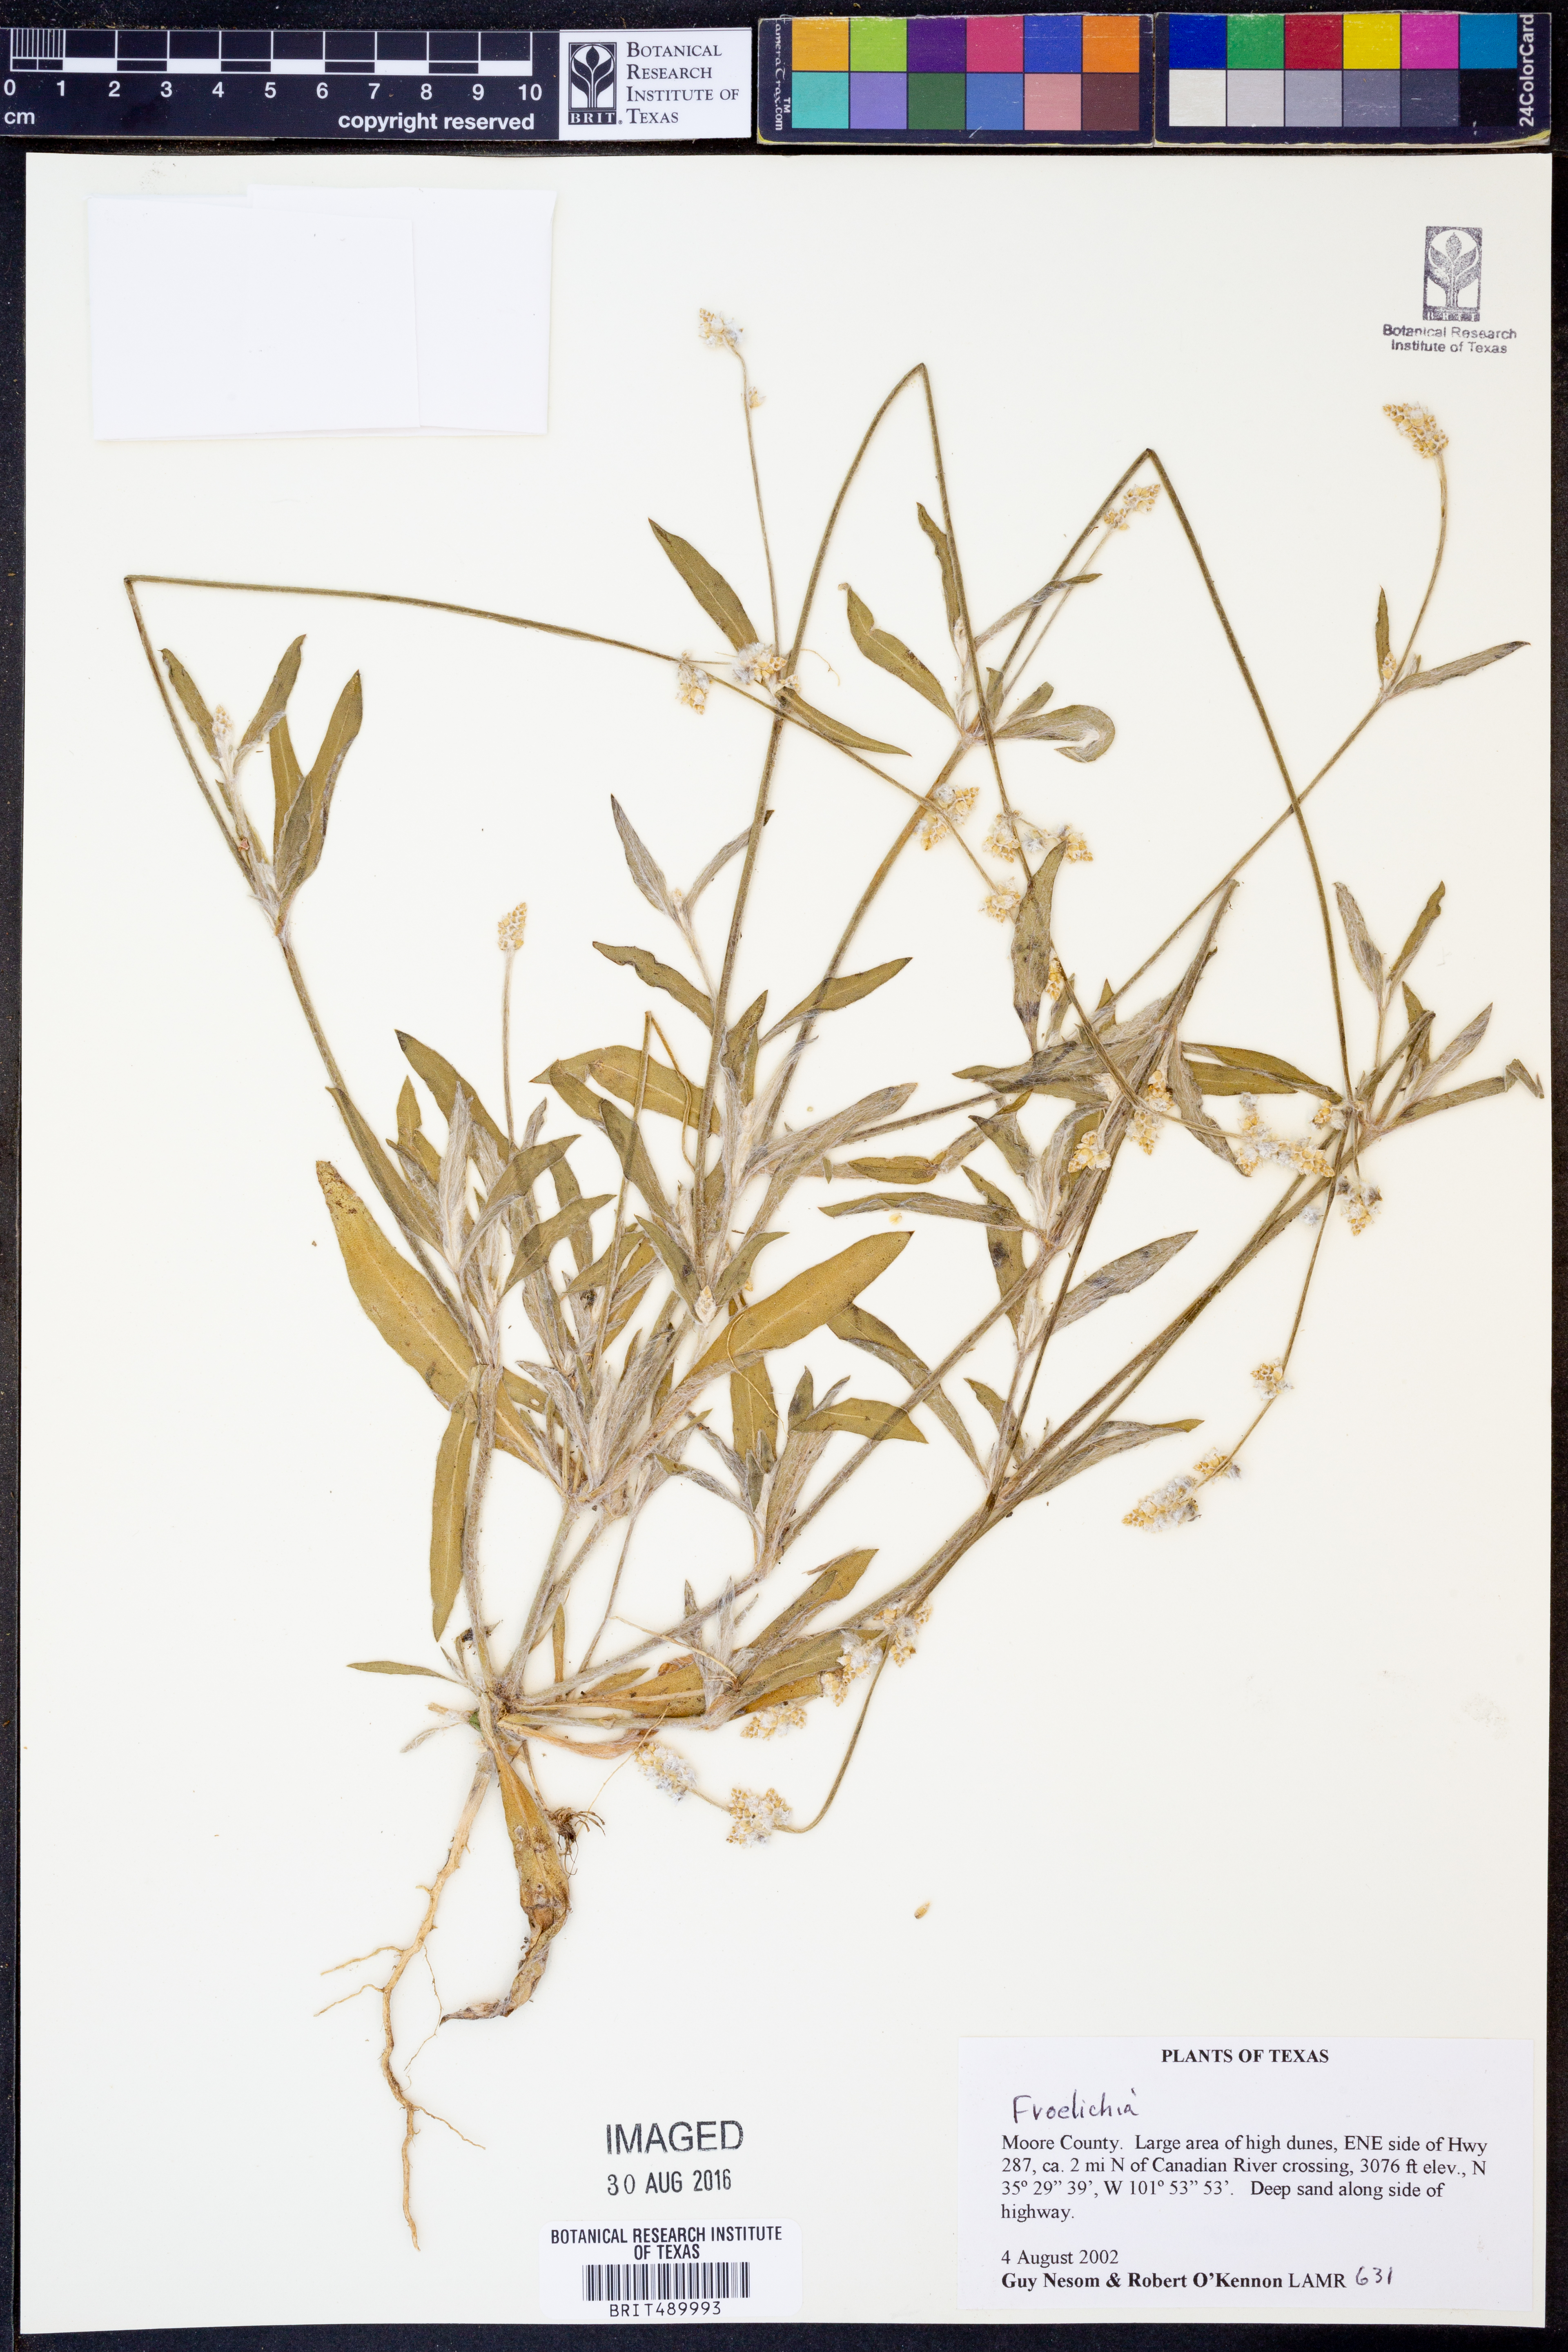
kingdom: Plantae
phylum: Tracheophyta
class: Magnoliopsida
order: Caryophyllales
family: Amaranthaceae
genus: Froelichia
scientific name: Froelichia
